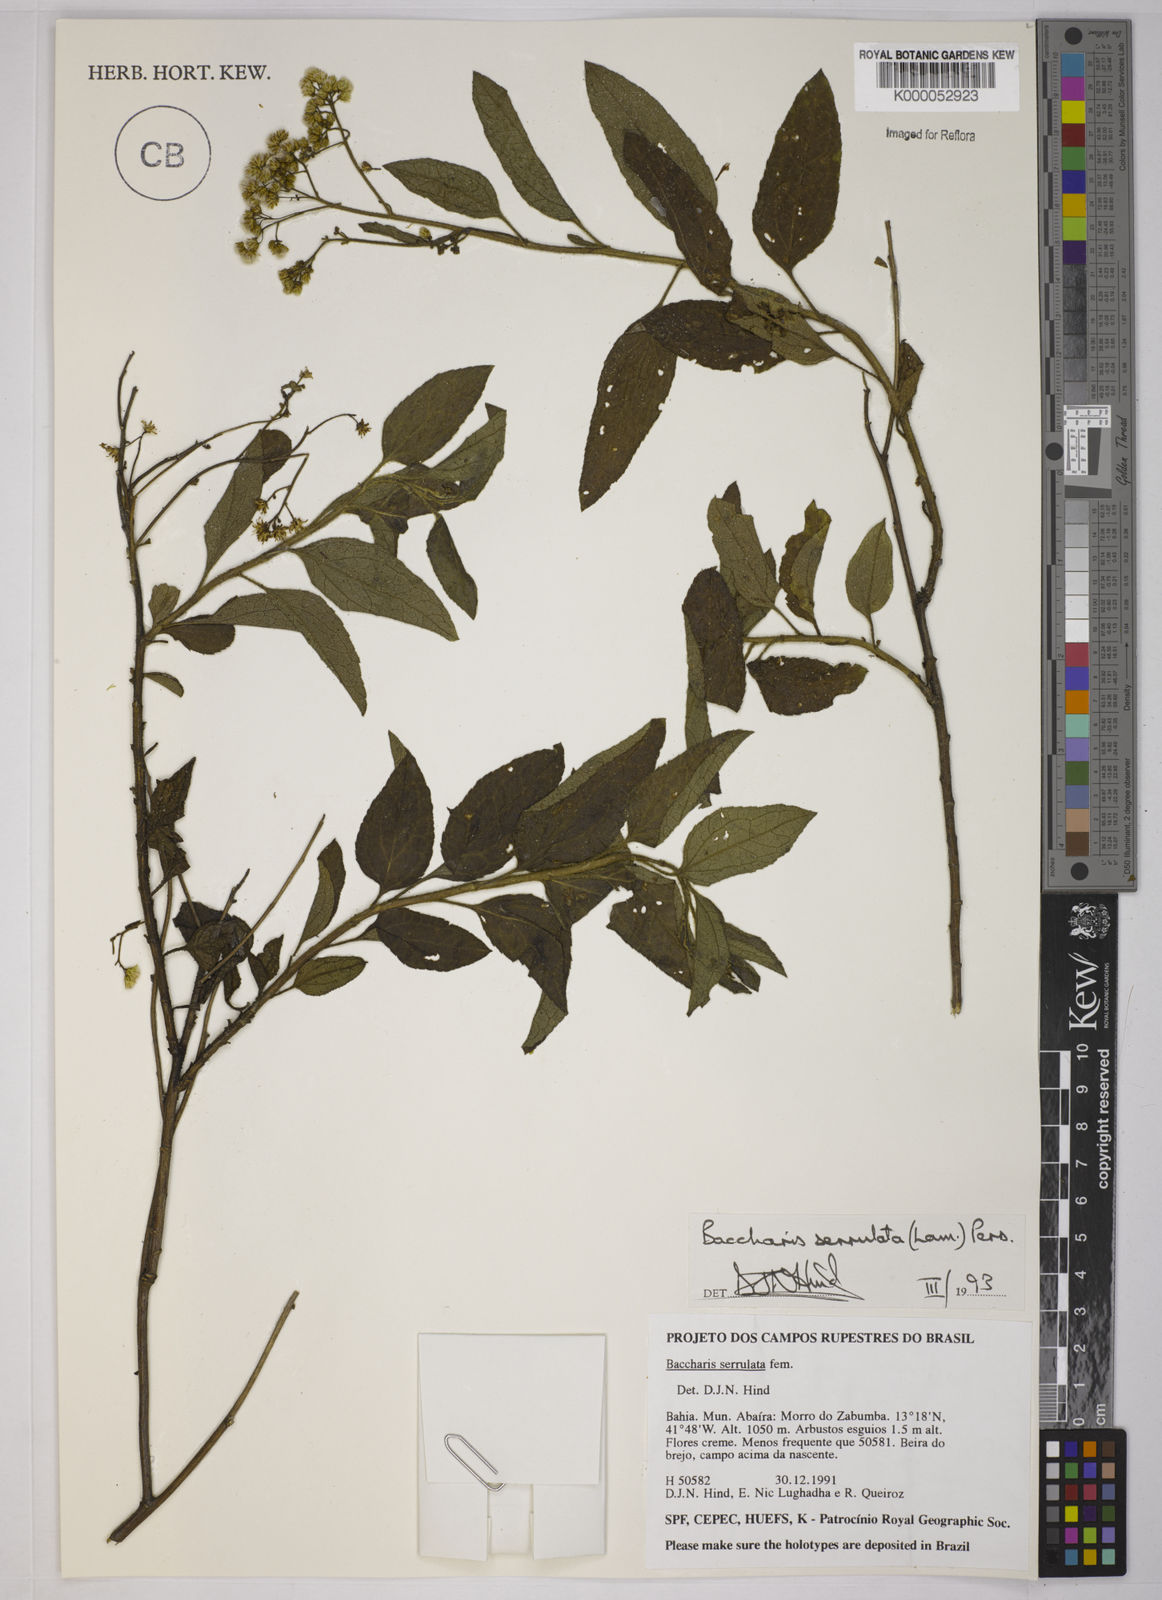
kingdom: Plantae
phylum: Tracheophyta
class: Magnoliopsida
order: Asterales
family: Asteraceae
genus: Baccharis
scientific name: Baccharis serrulata
